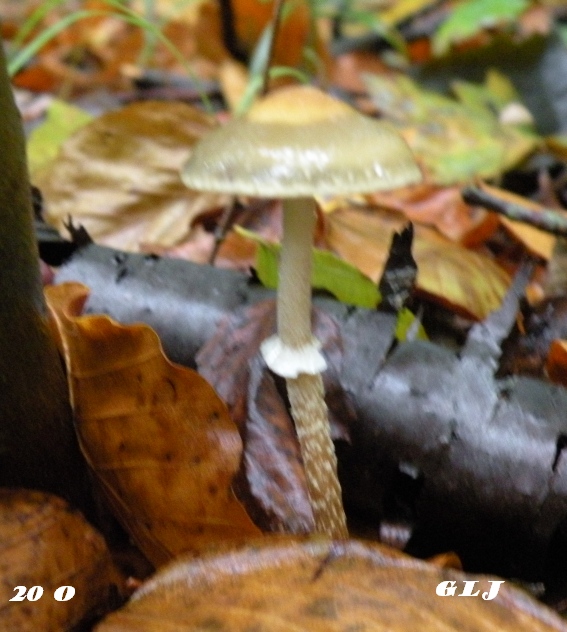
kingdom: Fungi
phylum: Basidiomycota
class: Agaricomycetes
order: Agaricales
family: Strophariaceae
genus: Leratiomyces
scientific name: Leratiomyces squamosus
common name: skællet bredblad
